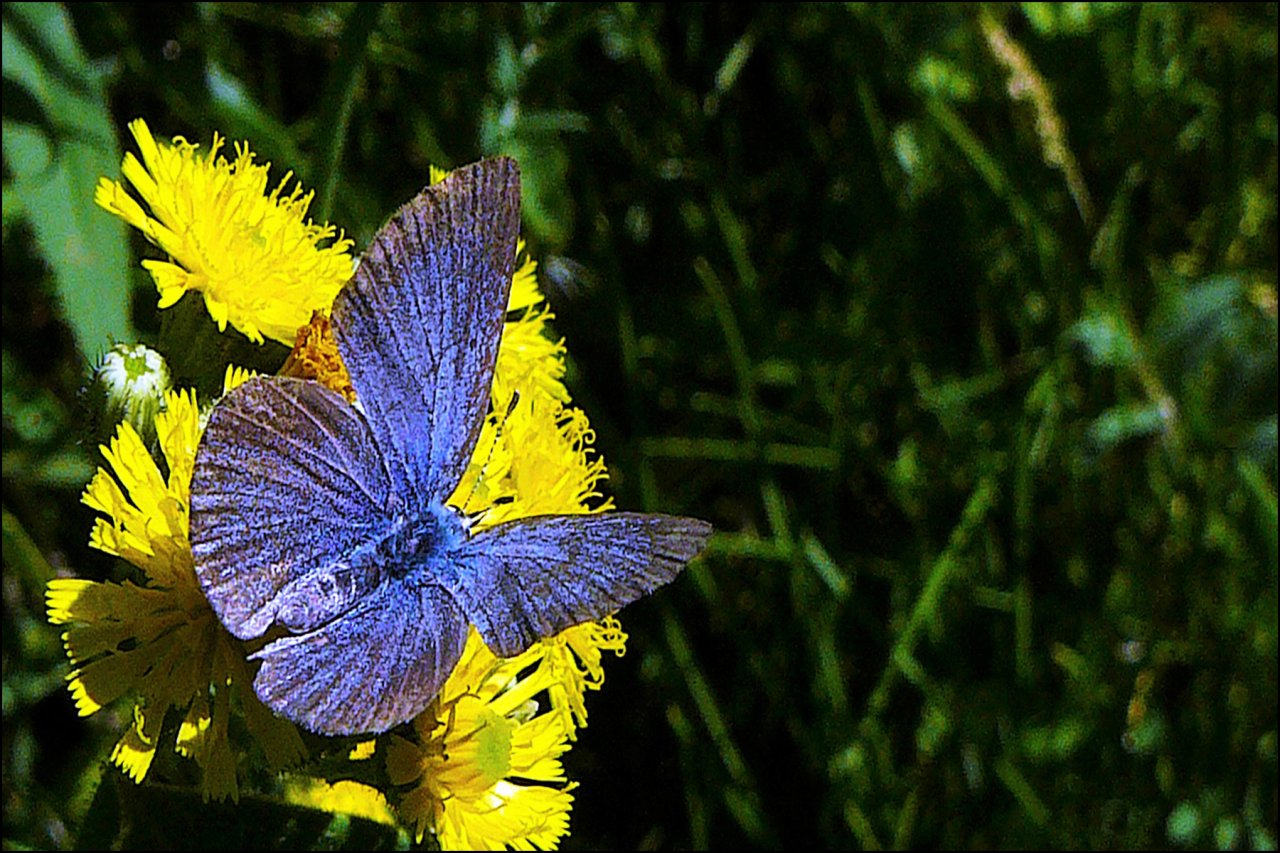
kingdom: Animalia
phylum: Arthropoda
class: Insecta
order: Lepidoptera
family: Lycaenidae
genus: Glaucopsyche
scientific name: Glaucopsyche lygdamus
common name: Silvery Blue
